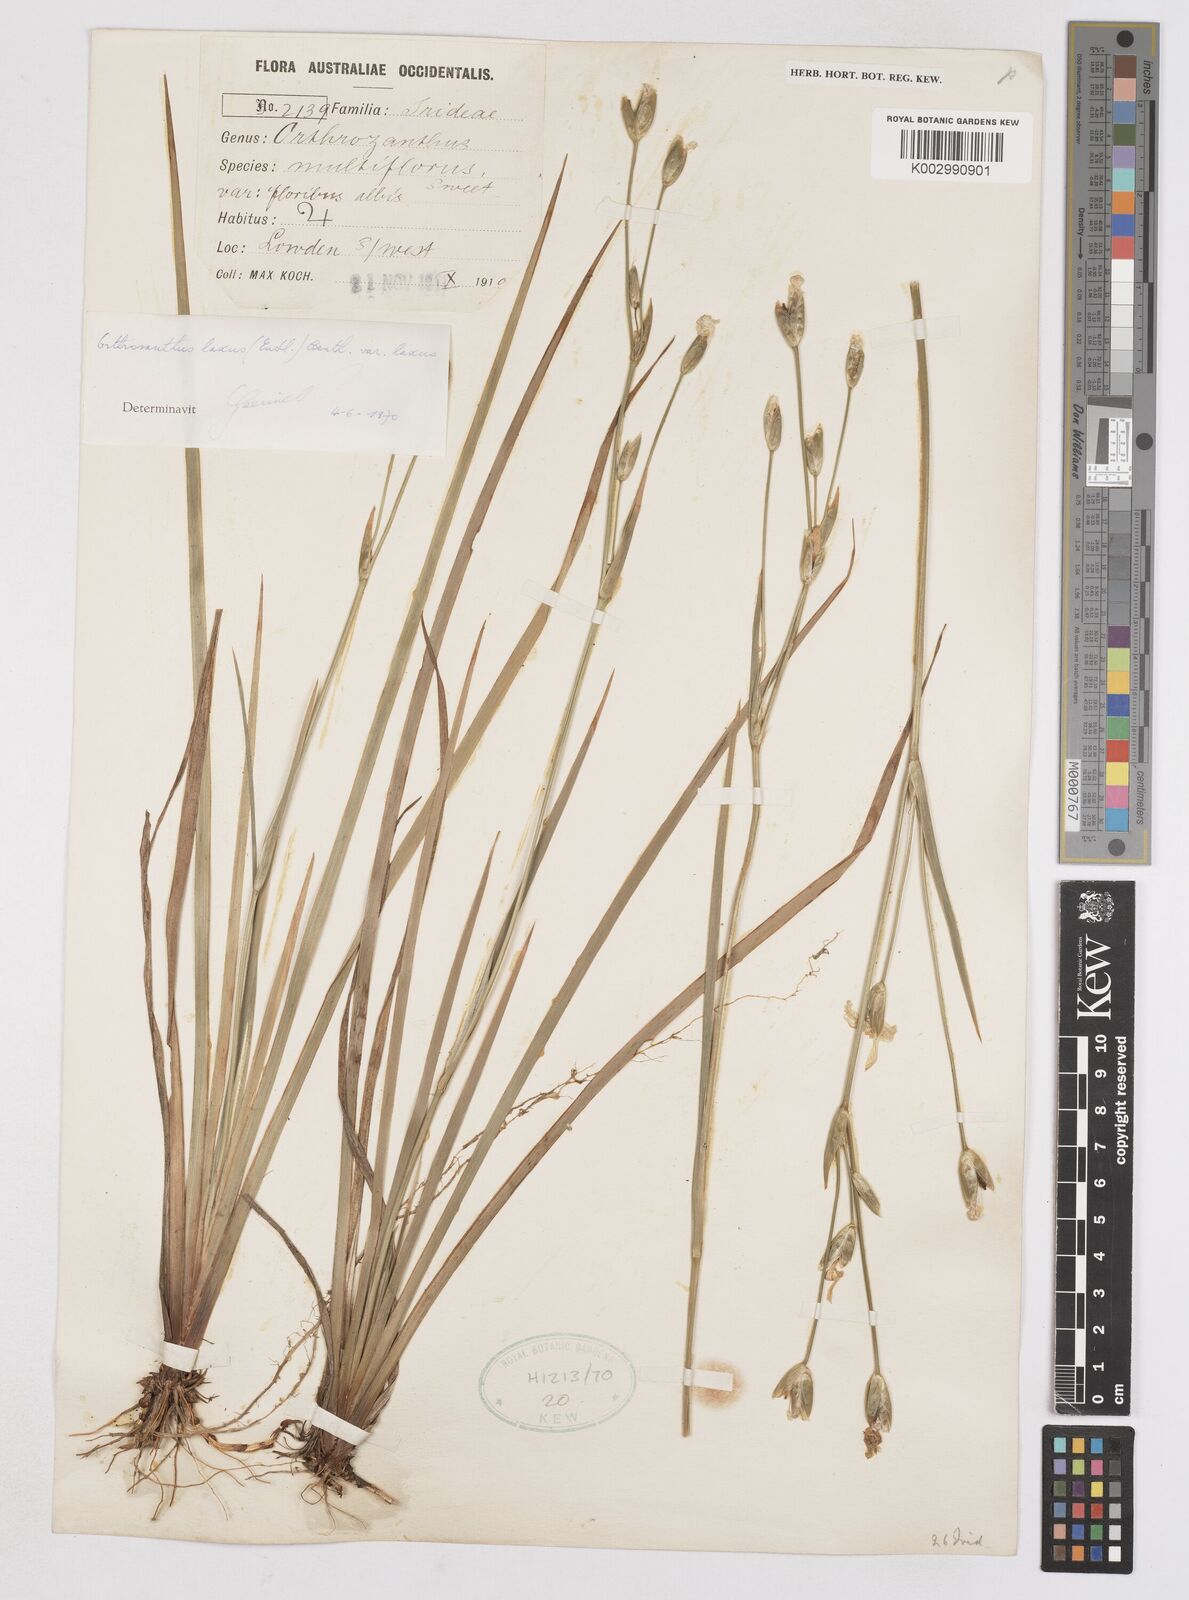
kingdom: Plantae
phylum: Tracheophyta
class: Liliopsida
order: Asparagales
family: Iridaceae
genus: Orthrosanthus
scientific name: Orthrosanthus laxus
